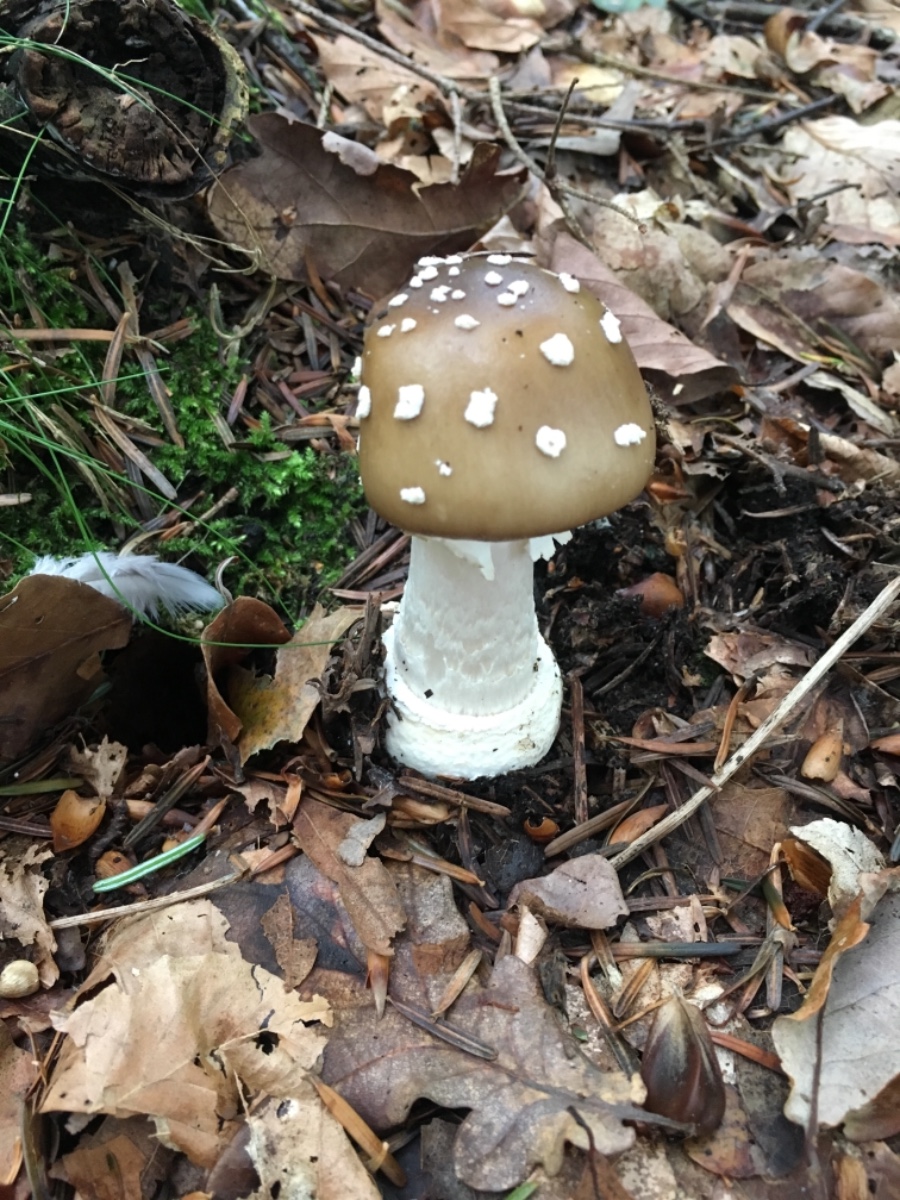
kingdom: Fungi
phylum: Basidiomycota
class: Agaricomycetes
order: Agaricales
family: Amanitaceae
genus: Amanita
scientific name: Amanita pantherina
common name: panter-fluesvamp
